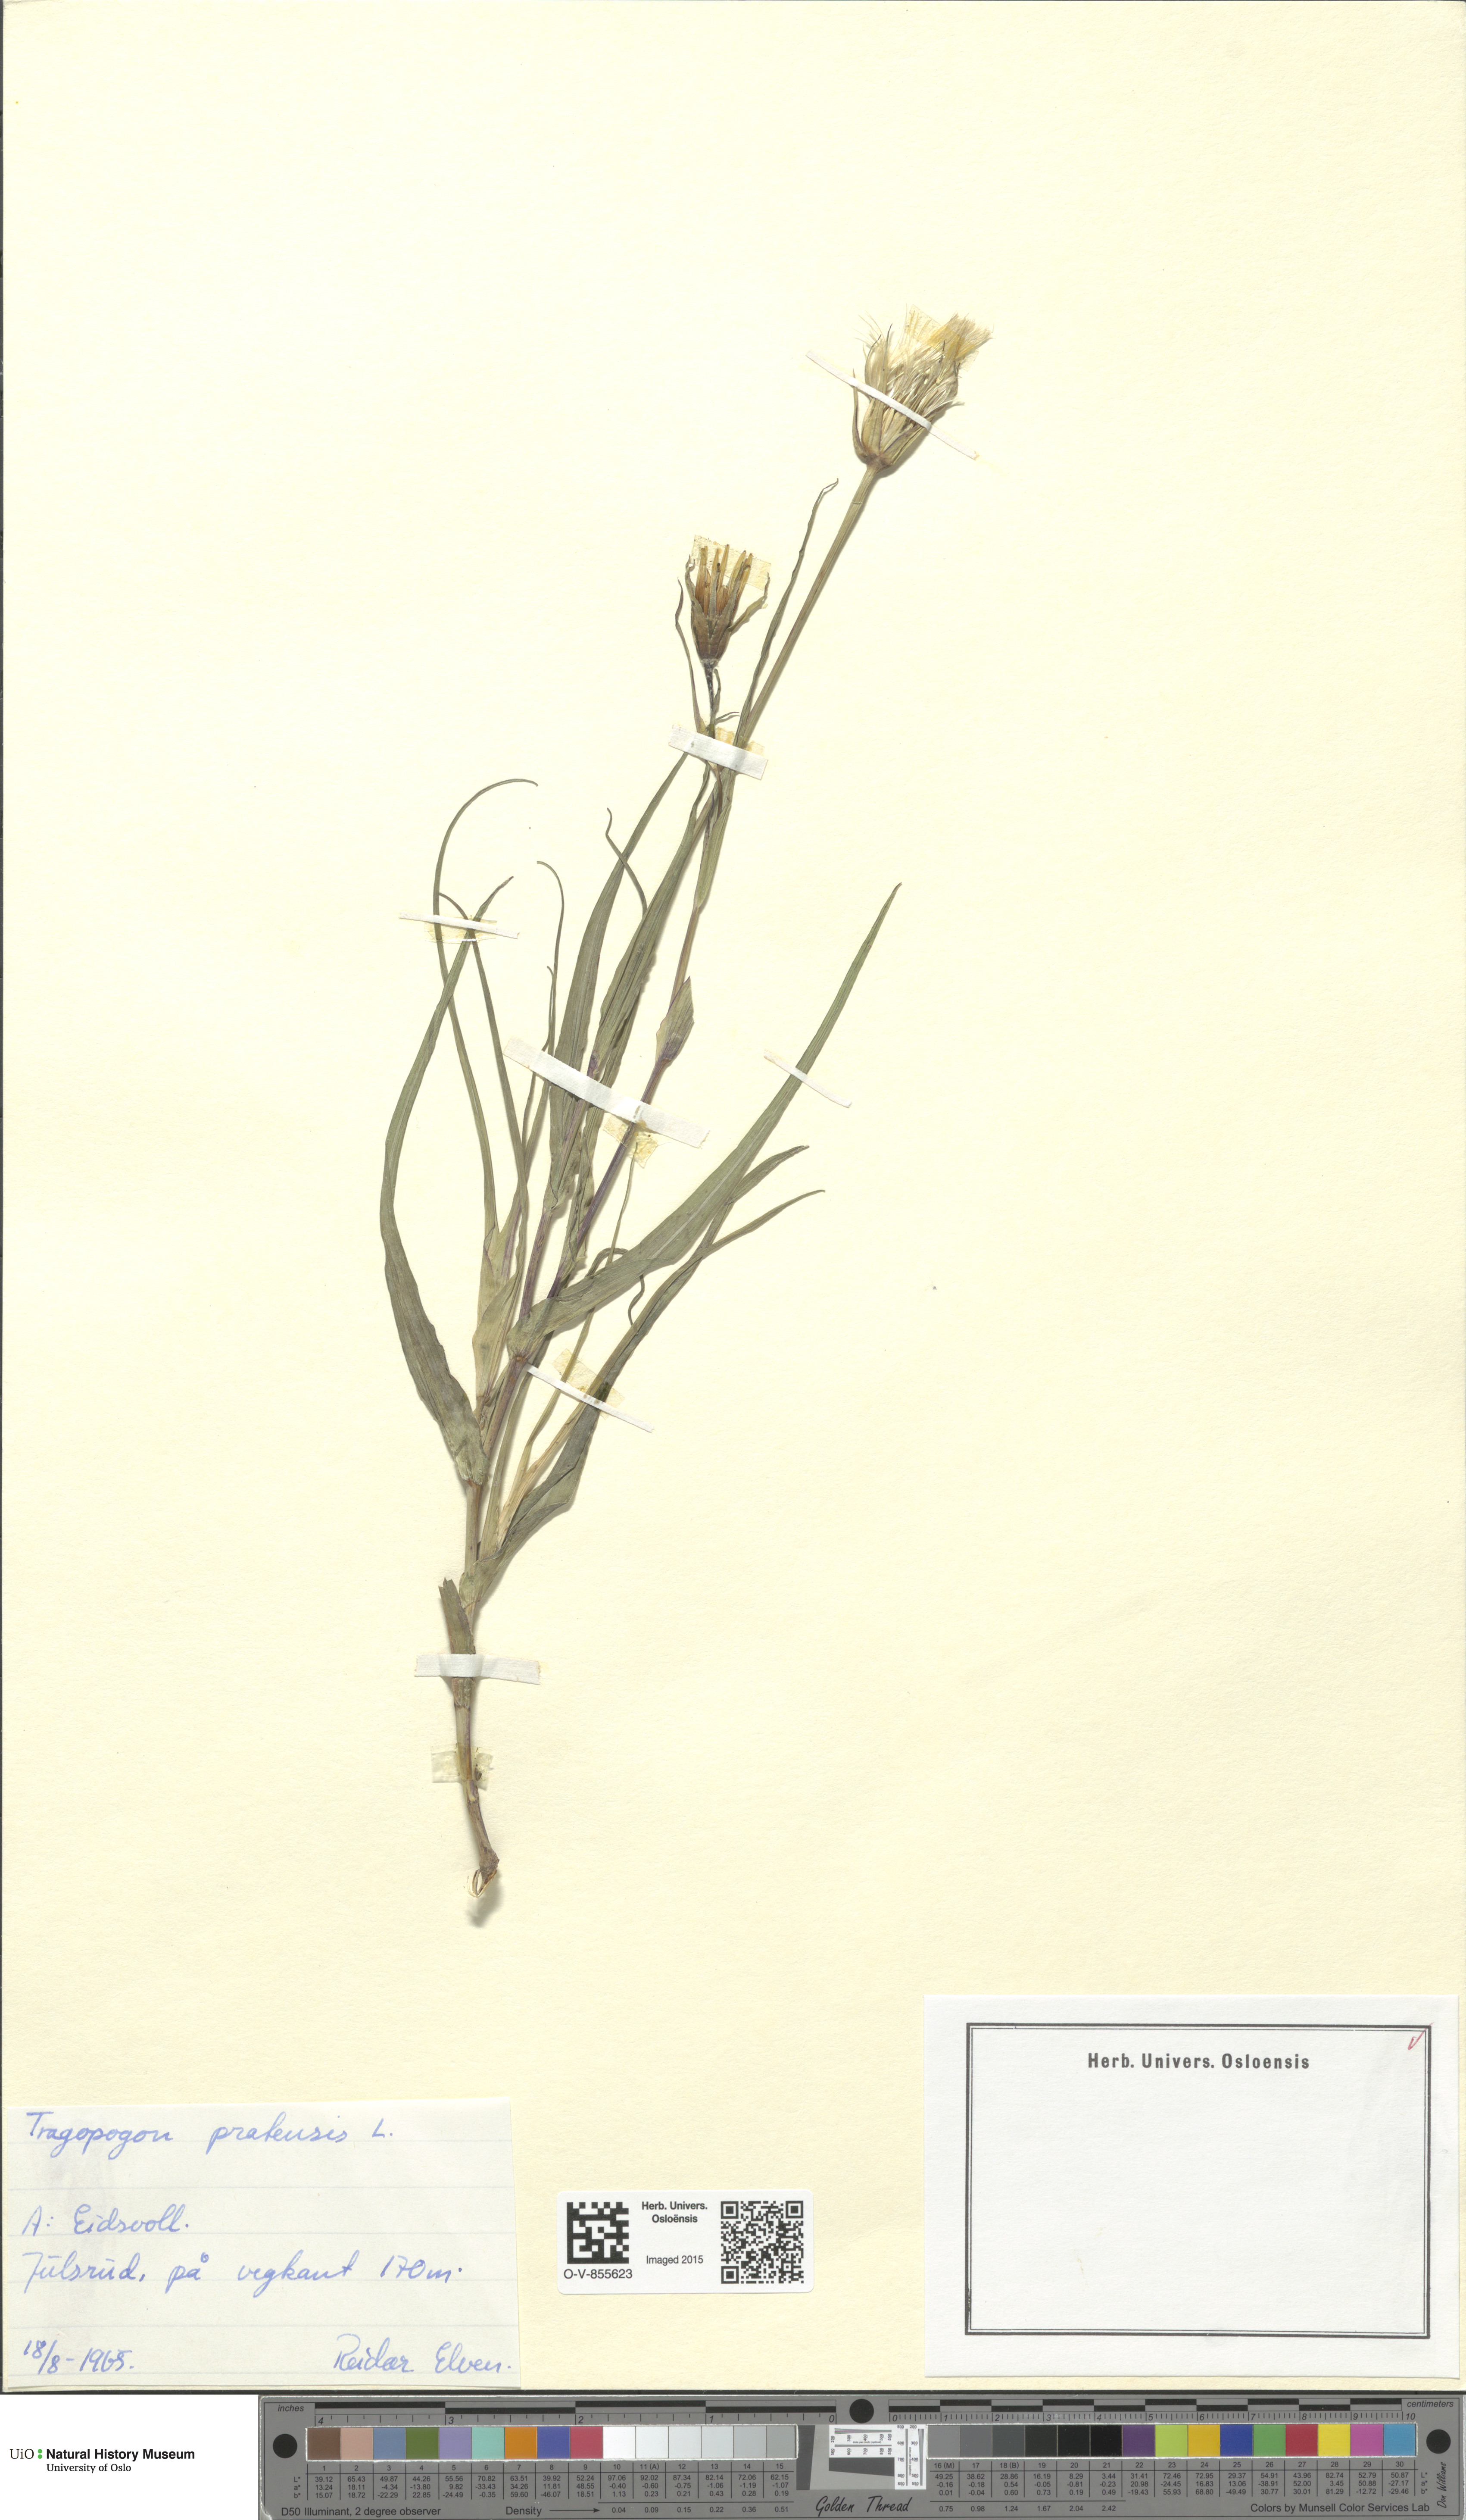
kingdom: Plantae
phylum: Tracheophyta
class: Magnoliopsida
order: Asterales
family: Asteraceae
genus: Tragopogon
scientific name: Tragopogon pratensis
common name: Goat's-beard
